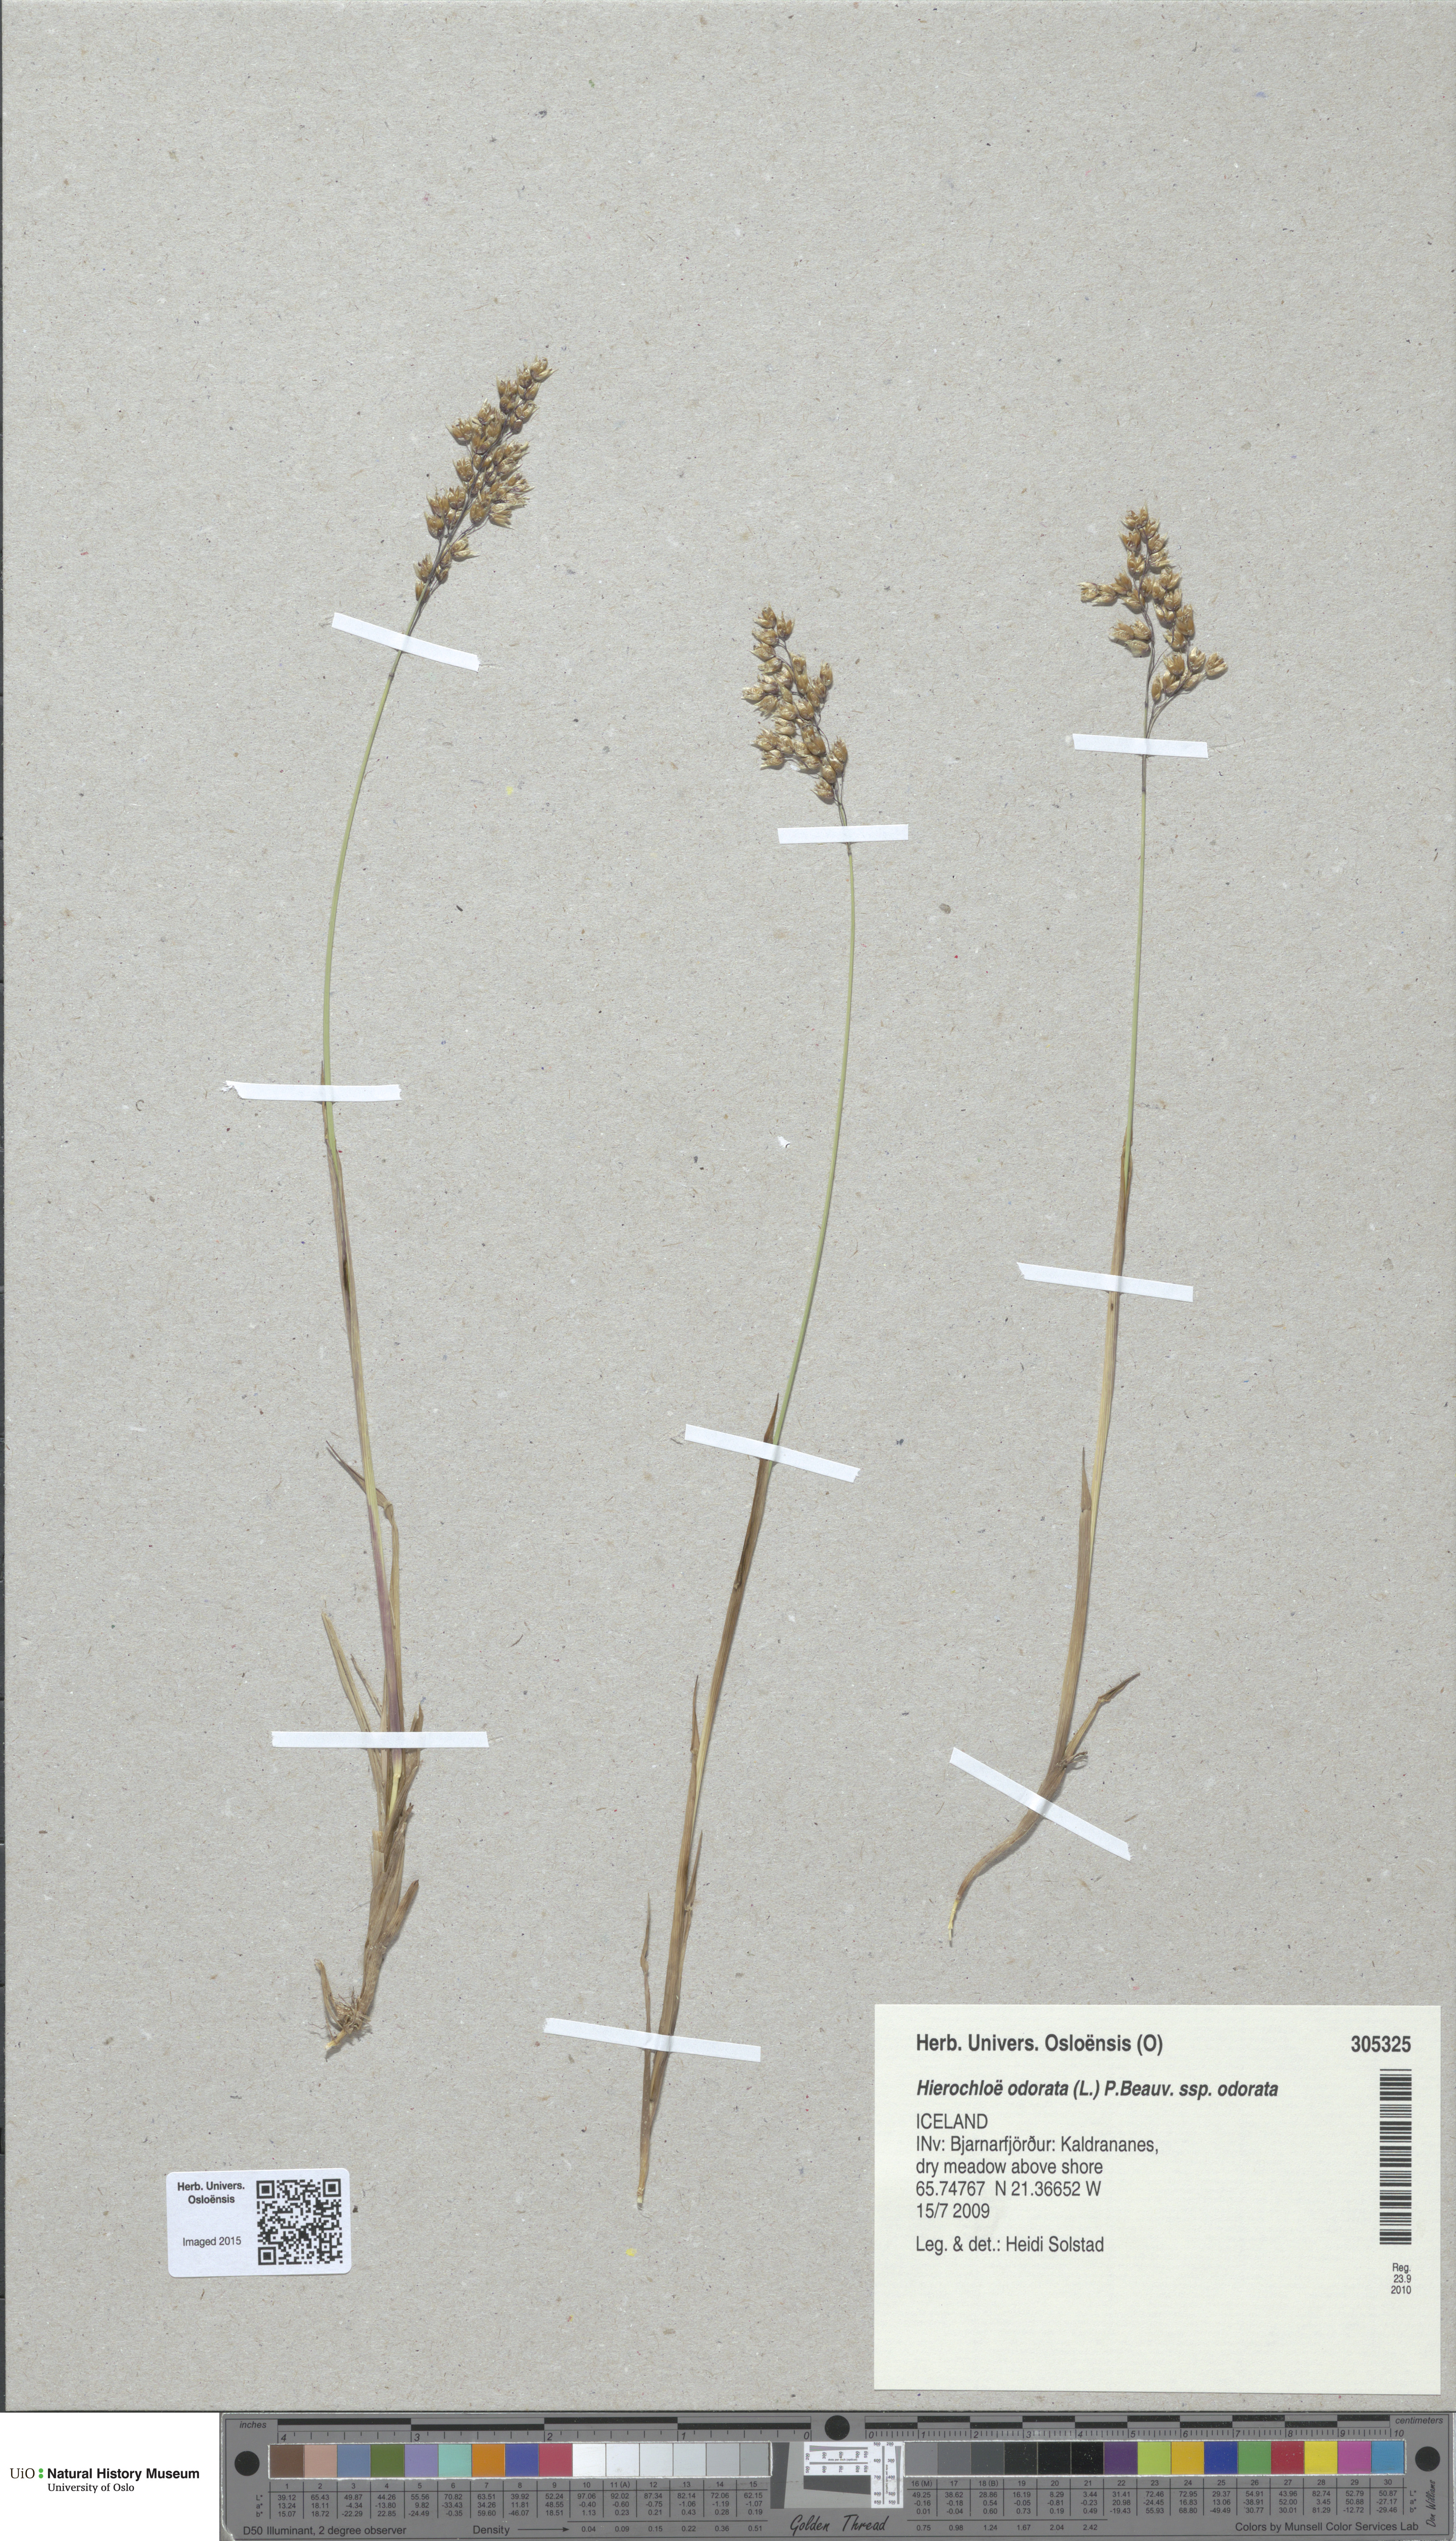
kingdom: Plantae
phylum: Tracheophyta
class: Liliopsida
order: Poales
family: Poaceae
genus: Anthoxanthum
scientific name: Anthoxanthum nitens
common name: Holy grass
